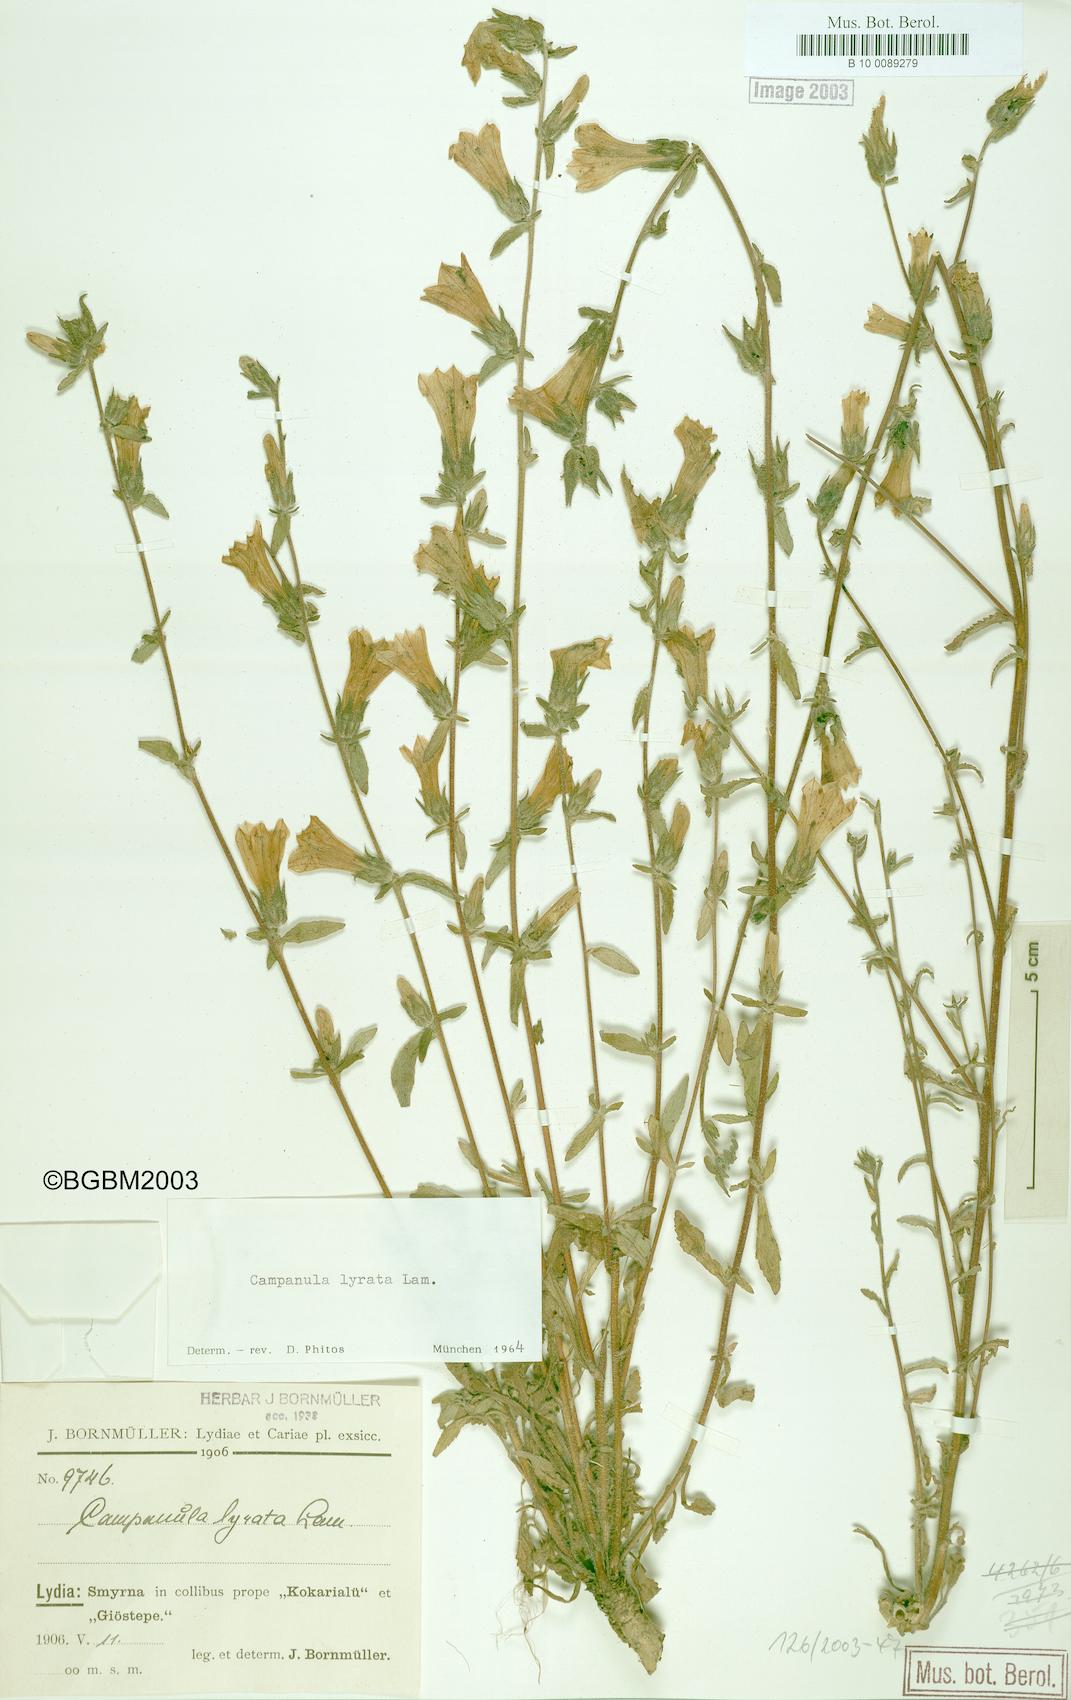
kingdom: Plantae
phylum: Tracheophyta
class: Magnoliopsida
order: Asterales
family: Campanulaceae
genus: Campanula
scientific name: Campanula lyrata
